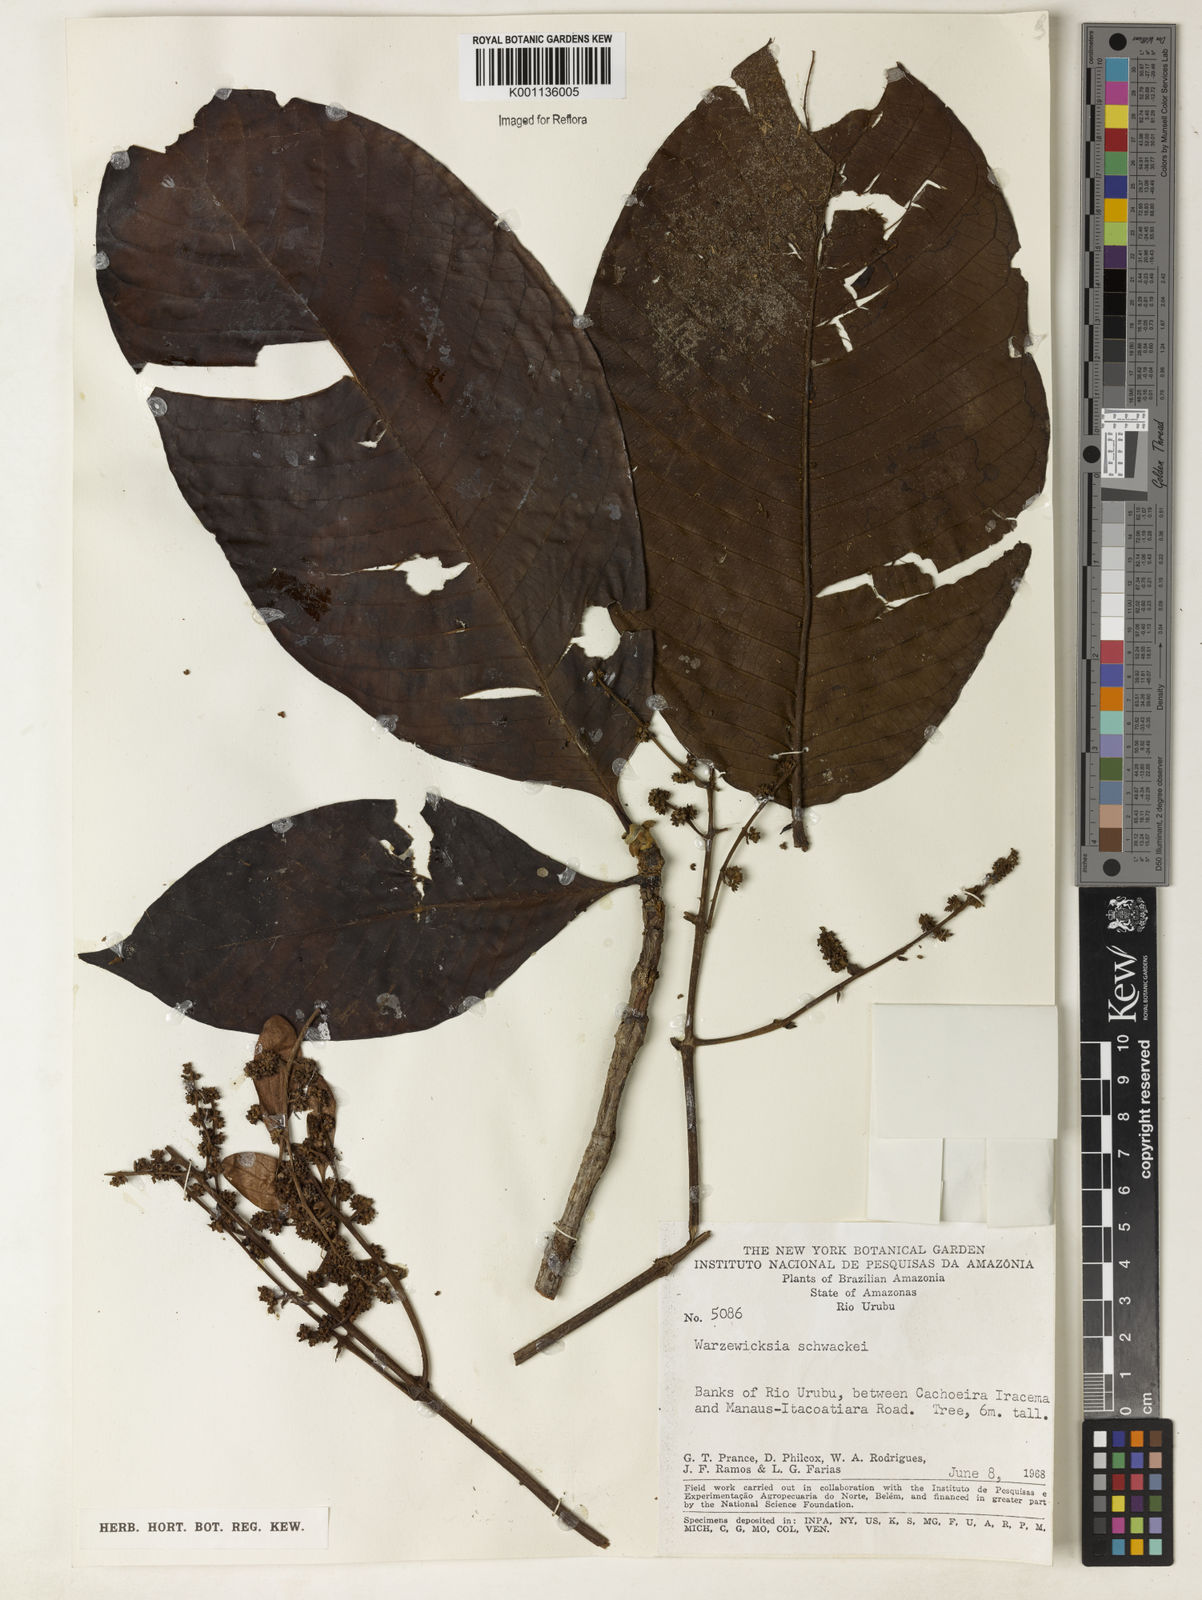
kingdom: Plantae
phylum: Tracheophyta
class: Magnoliopsida
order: Gentianales
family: Rubiaceae
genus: Warszewiczia
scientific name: Warszewiczia schwackei
